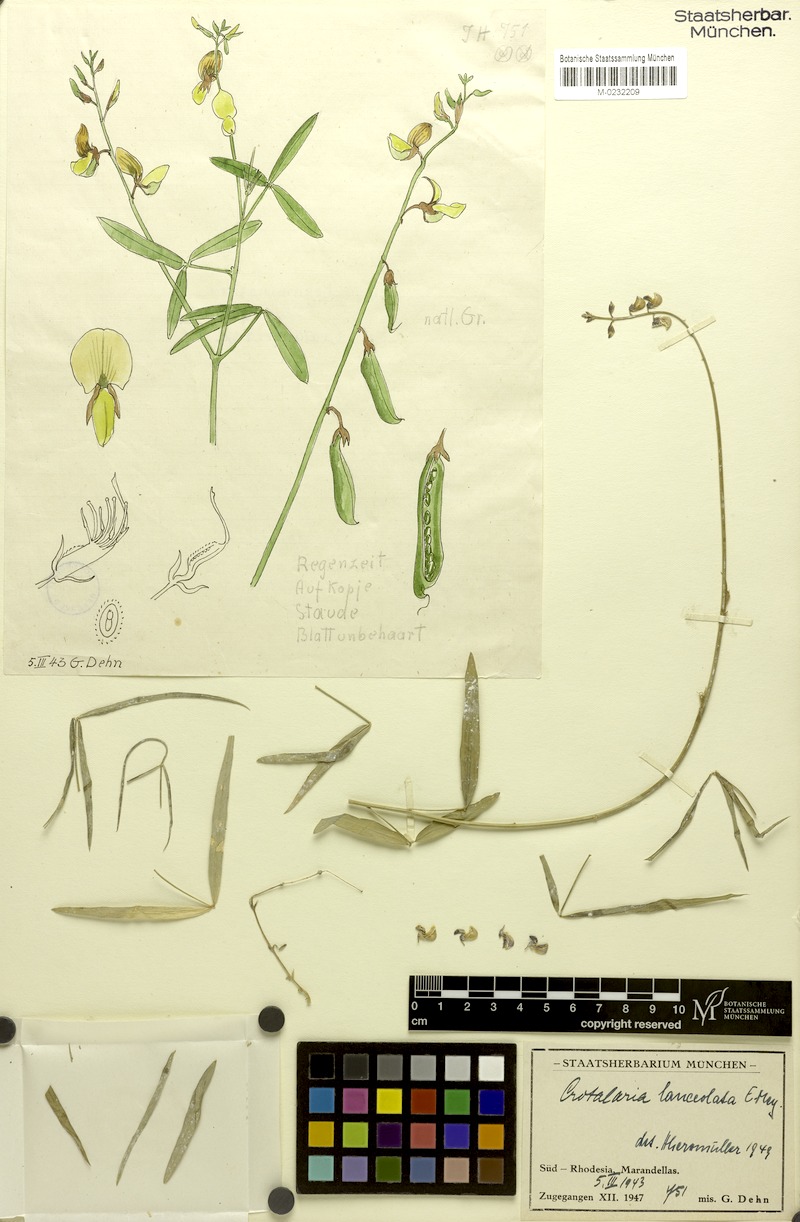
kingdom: Plantae
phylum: Tracheophyta
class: Magnoliopsida
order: Fabales
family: Fabaceae
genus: Crotalaria
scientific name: Crotalaria lanceolata
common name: Lanceleaf rattlebox
